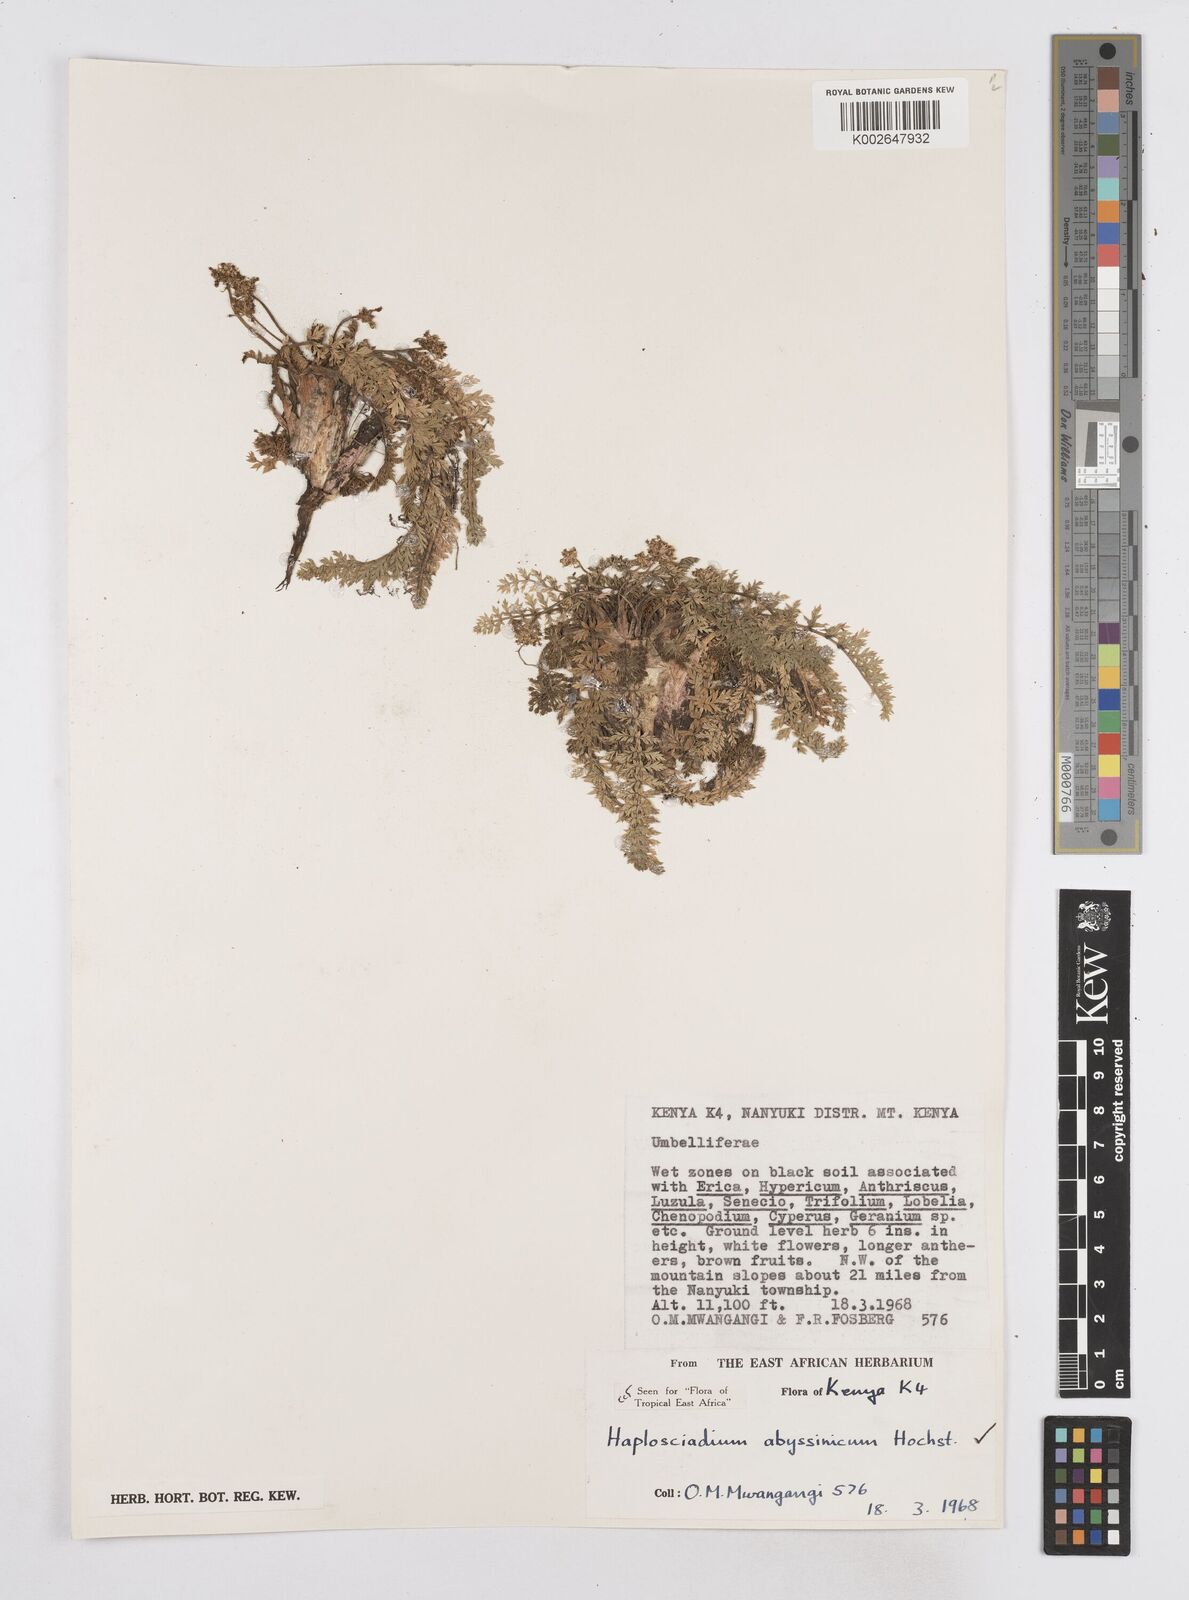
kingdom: Plantae
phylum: Tracheophyta
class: Magnoliopsida
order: Apiales
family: Apiaceae
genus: Haplosciadium
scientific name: Haplosciadium abyssinicum
